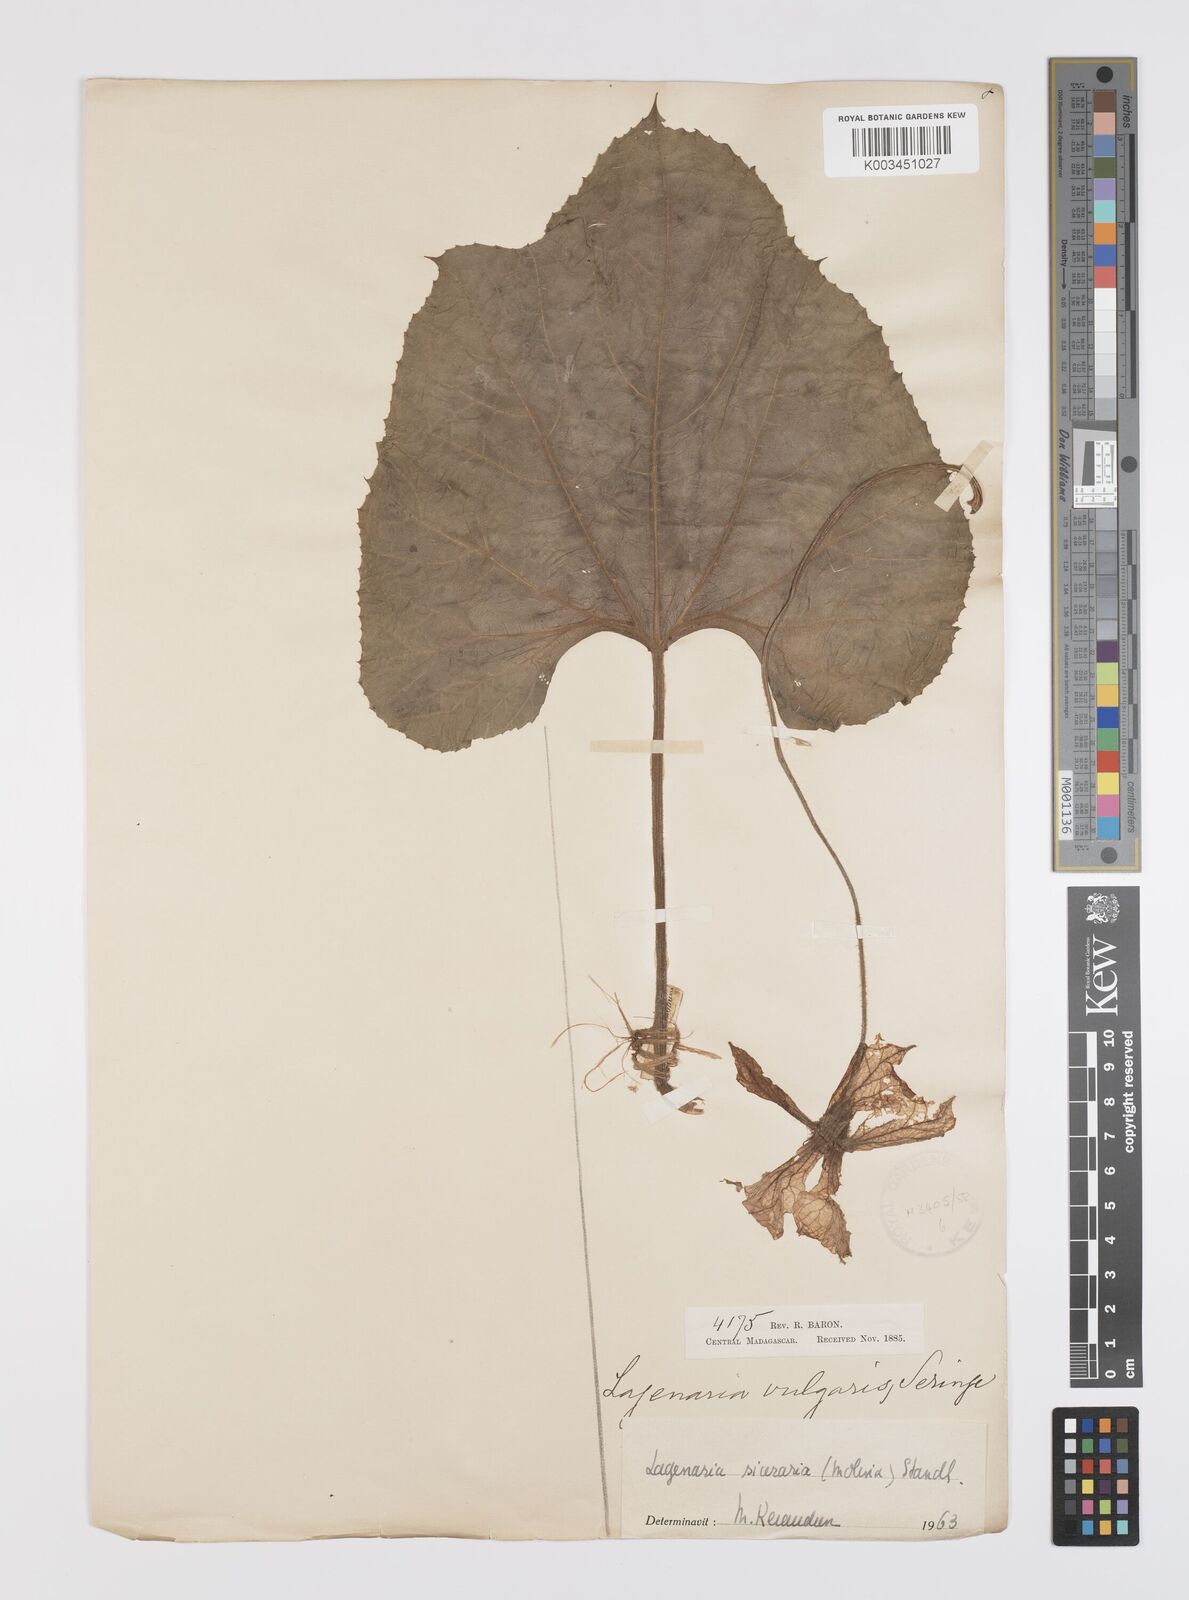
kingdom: Plantae
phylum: Tracheophyta
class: Magnoliopsida
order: Cucurbitales
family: Cucurbitaceae
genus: Lagenaria
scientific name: Lagenaria siceraria
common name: Bottle gourd
